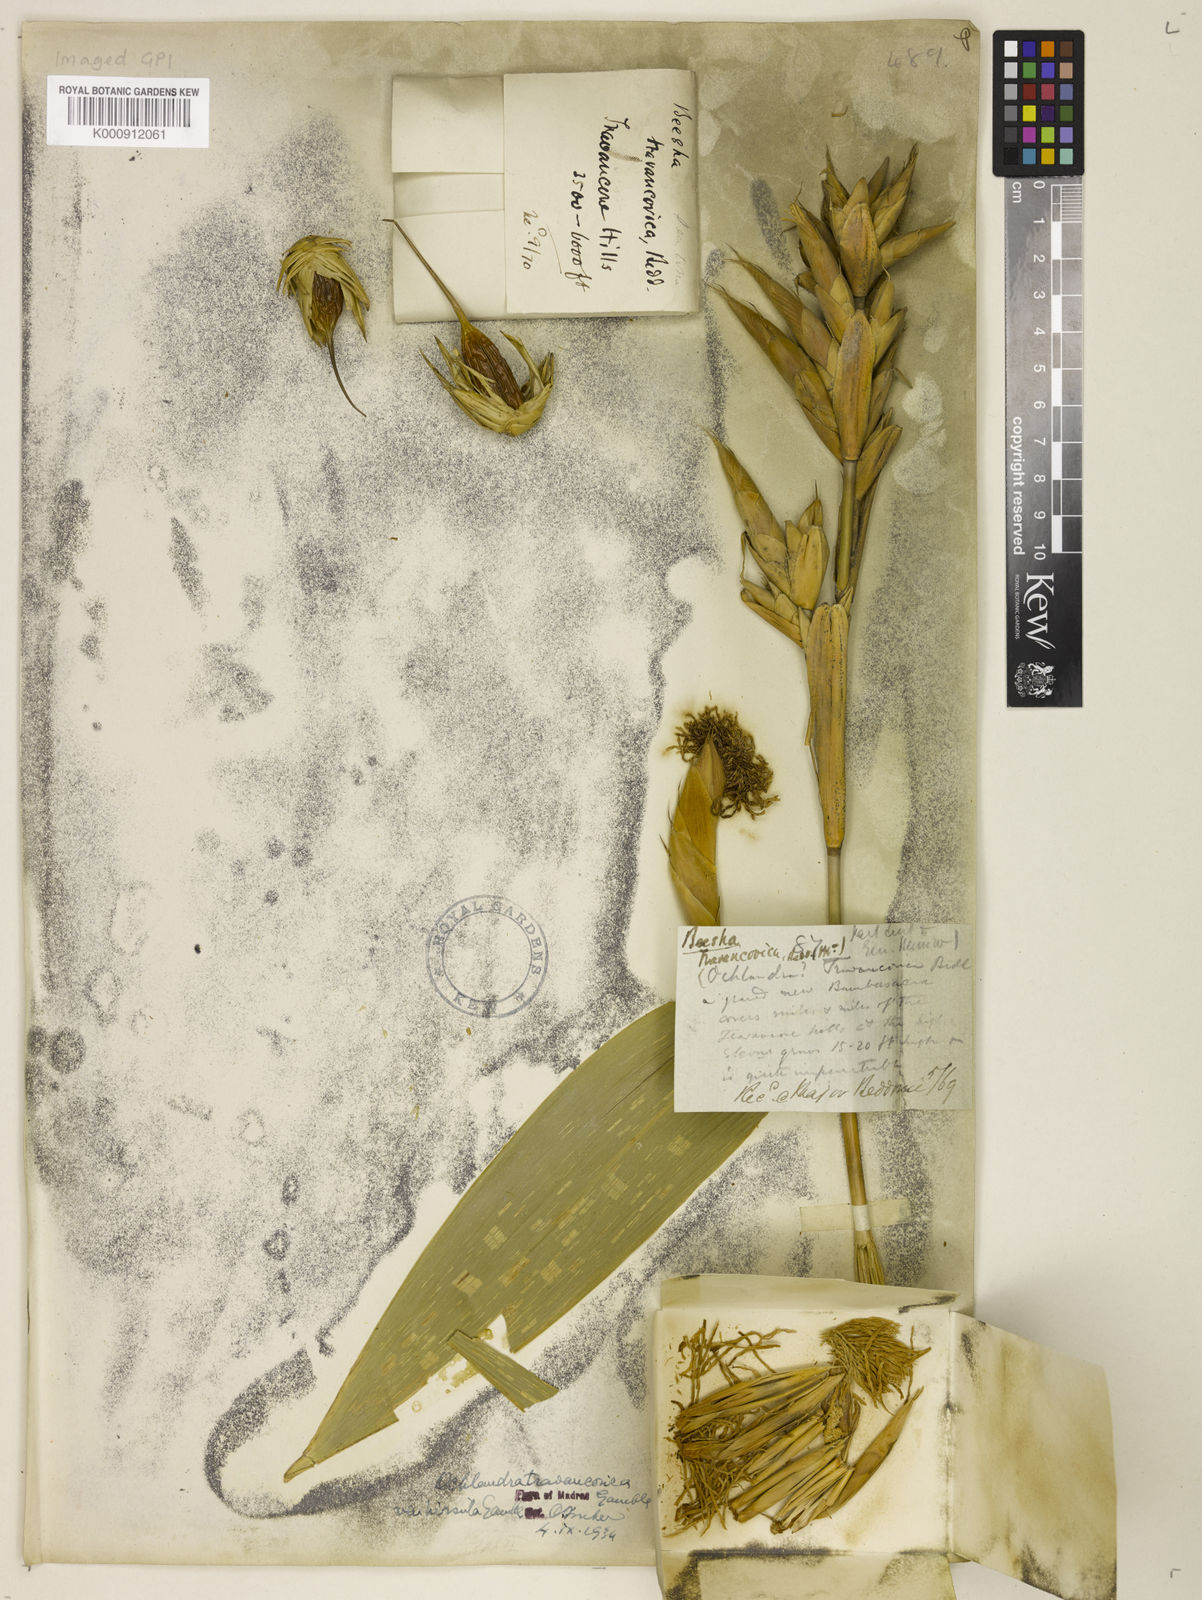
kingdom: Plantae
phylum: Tracheophyta
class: Liliopsida
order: Poales
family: Poaceae
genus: Ochlandra
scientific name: Ochlandra travancorica
